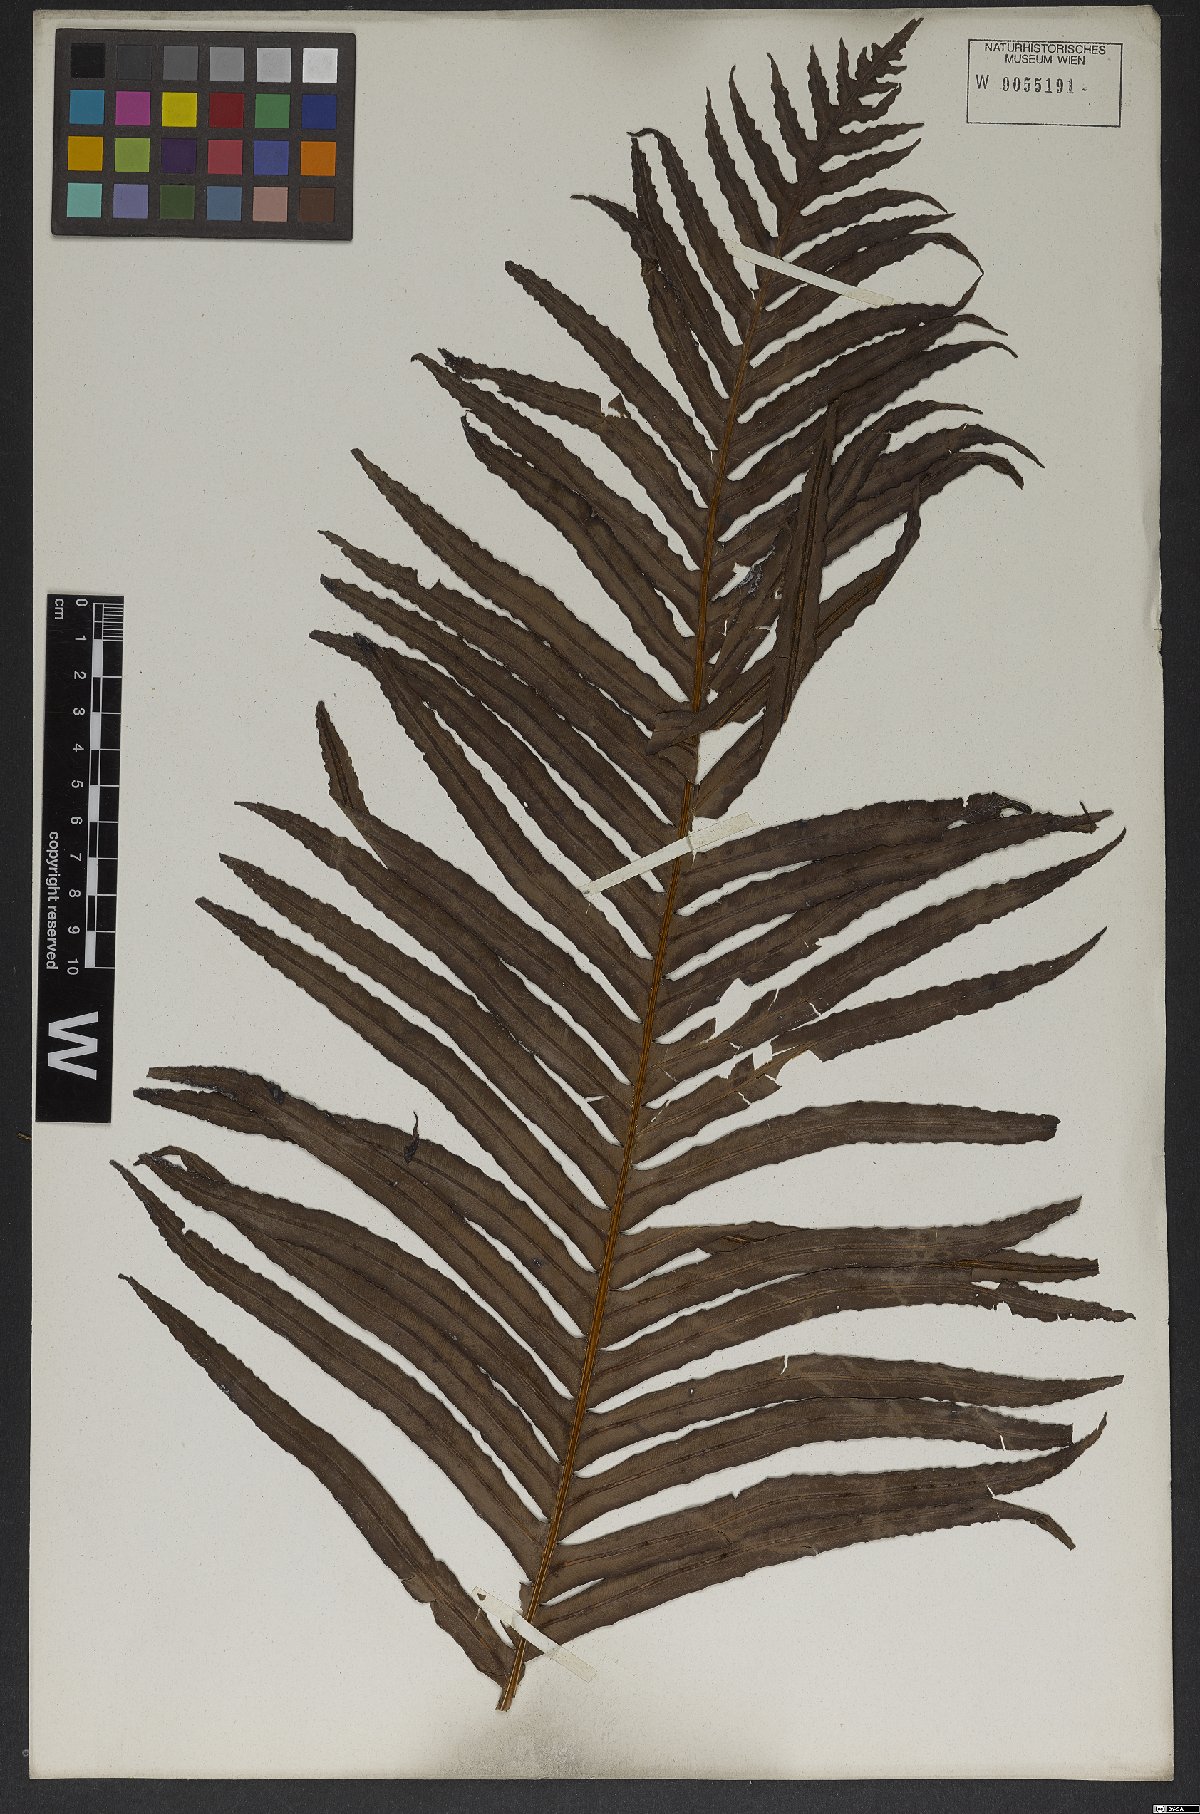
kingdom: Plantae
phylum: Tracheophyta
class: Polypodiopsida
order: Polypodiales
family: Blechnaceae
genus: Neoblechnum
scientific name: Neoblechnum brasiliense
